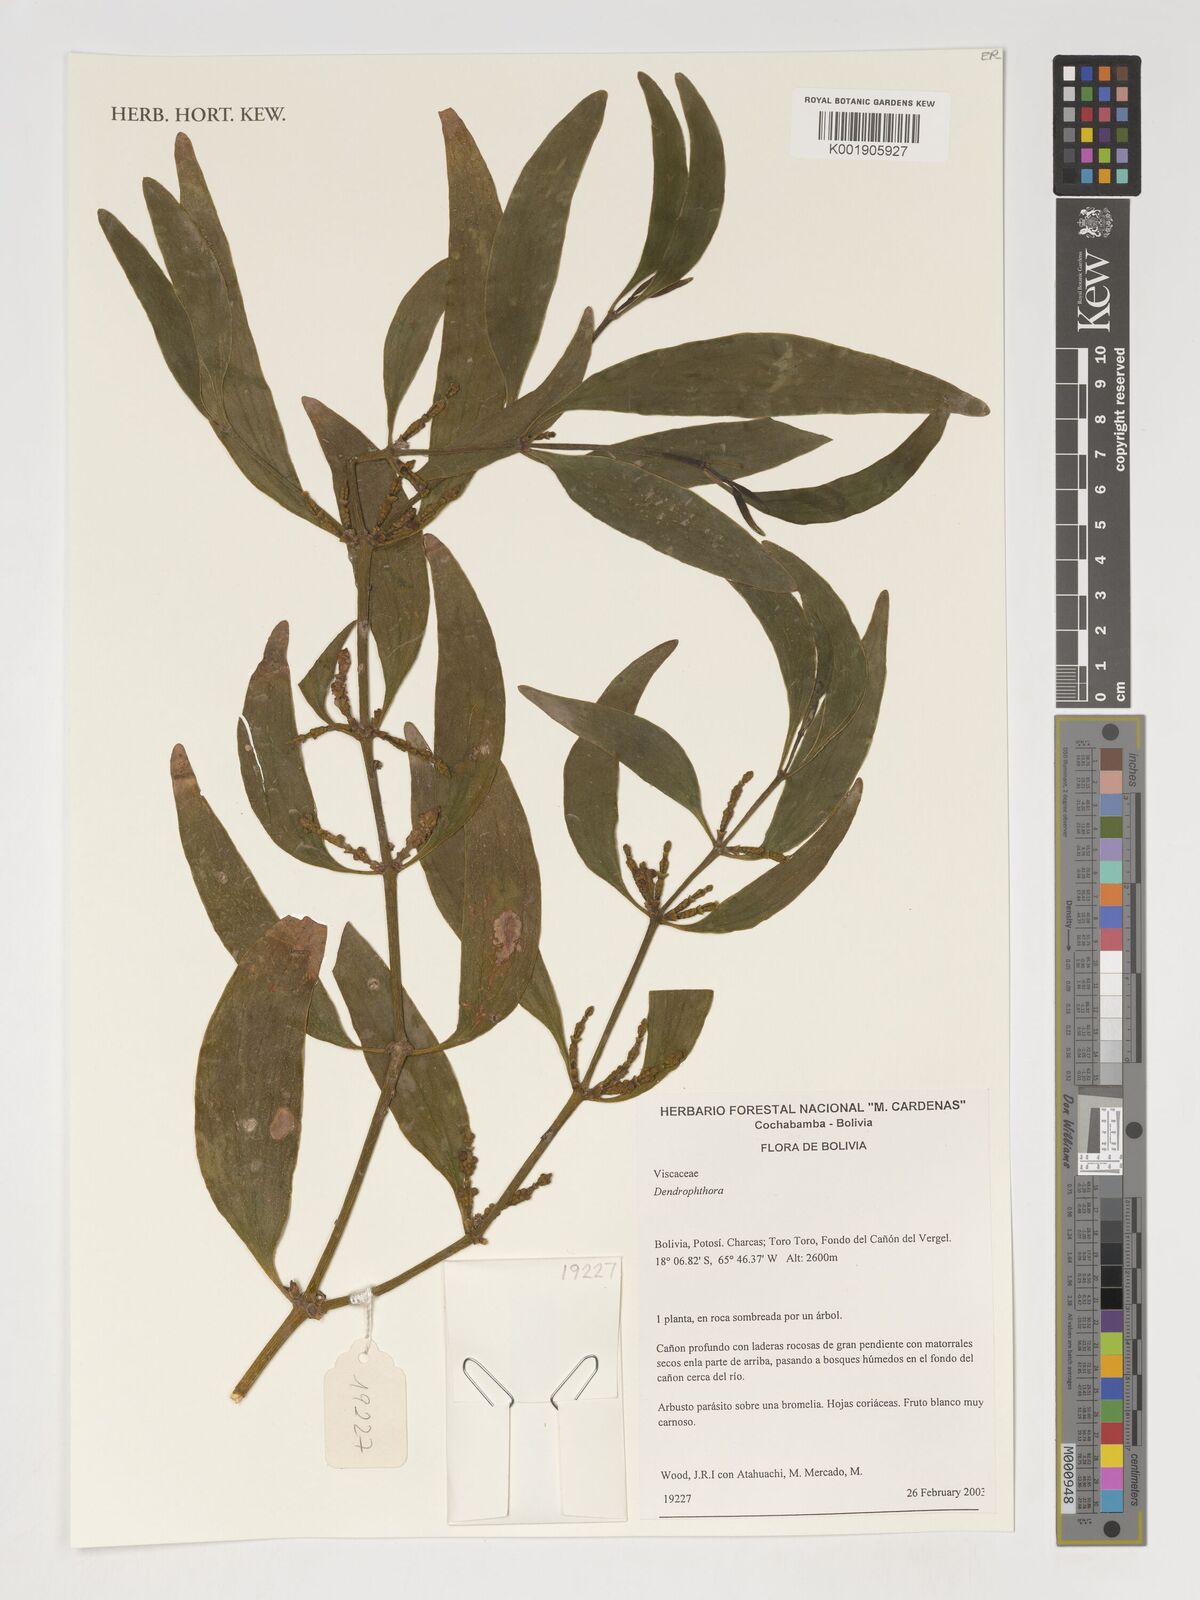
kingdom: Plantae
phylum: Tracheophyta
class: Magnoliopsida
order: Santalales
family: Viscaceae
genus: Dendrophthora
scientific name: Dendrophthora
